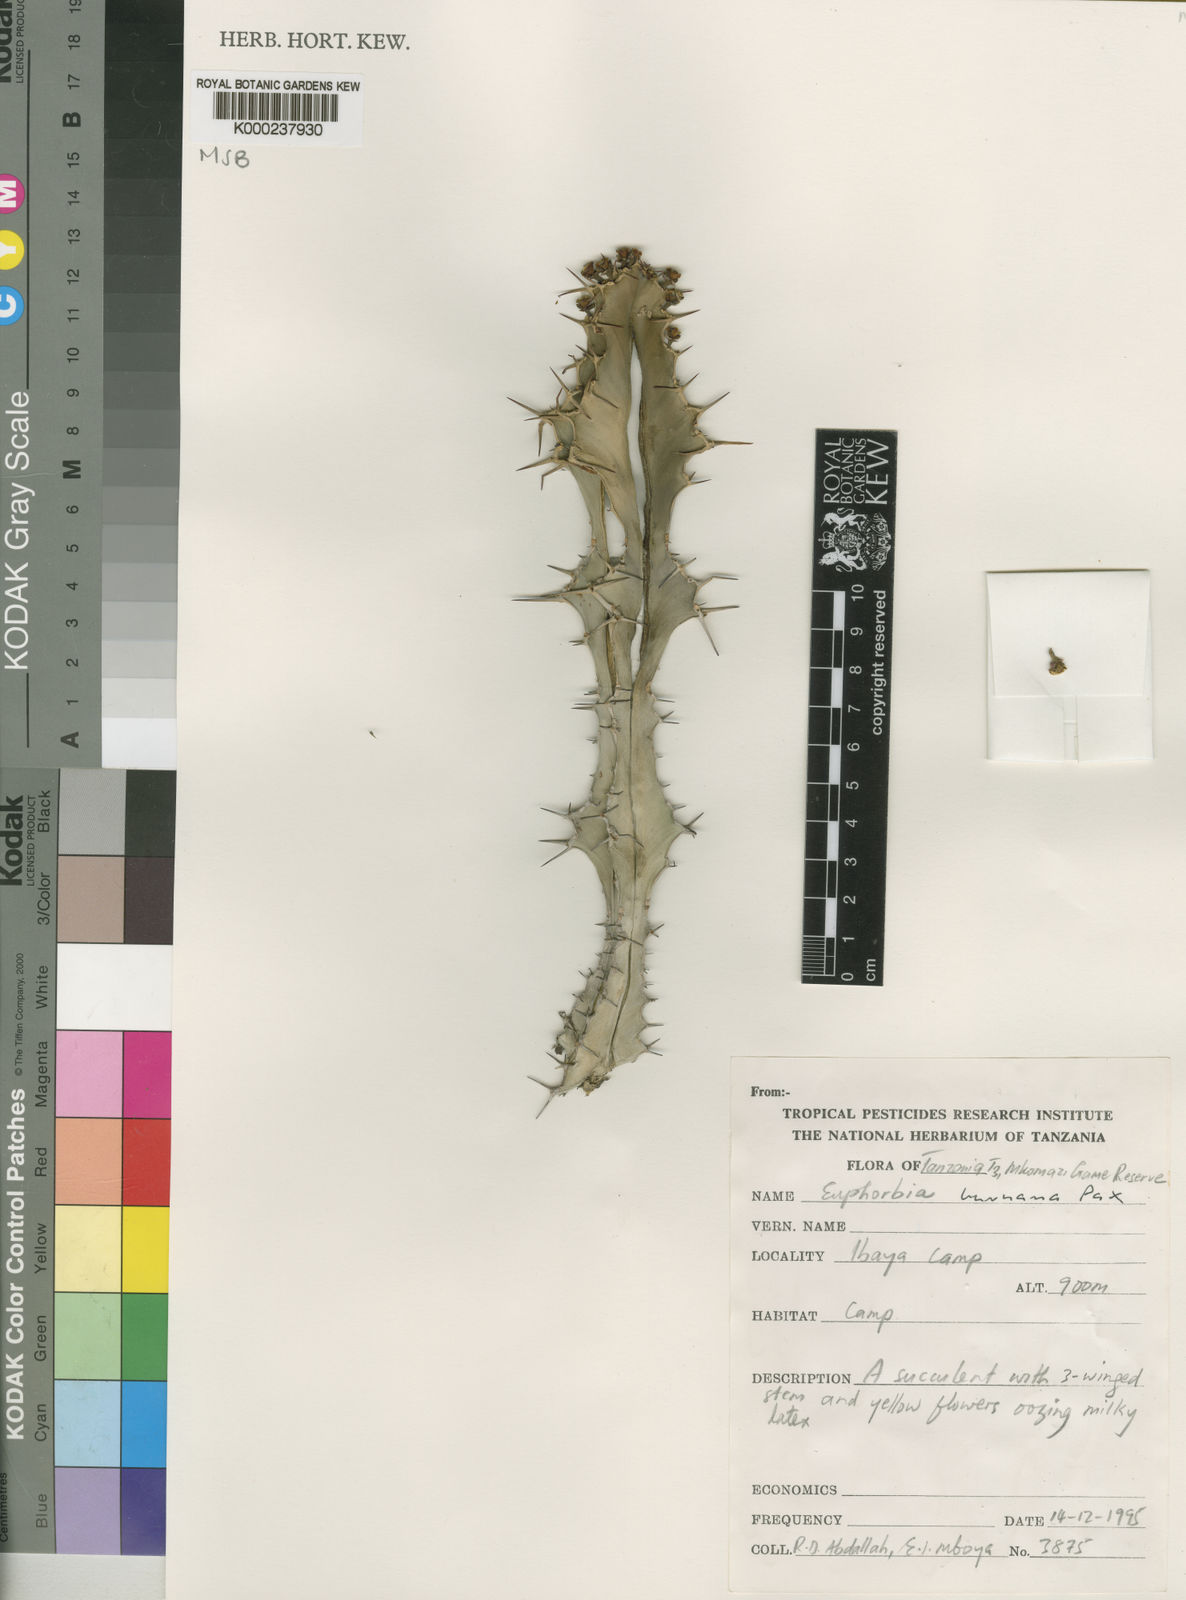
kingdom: Plantae
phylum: Tracheophyta
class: Magnoliopsida
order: Malpighiales
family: Euphorbiaceae
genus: Euphorbia
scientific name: Euphorbia buruana
